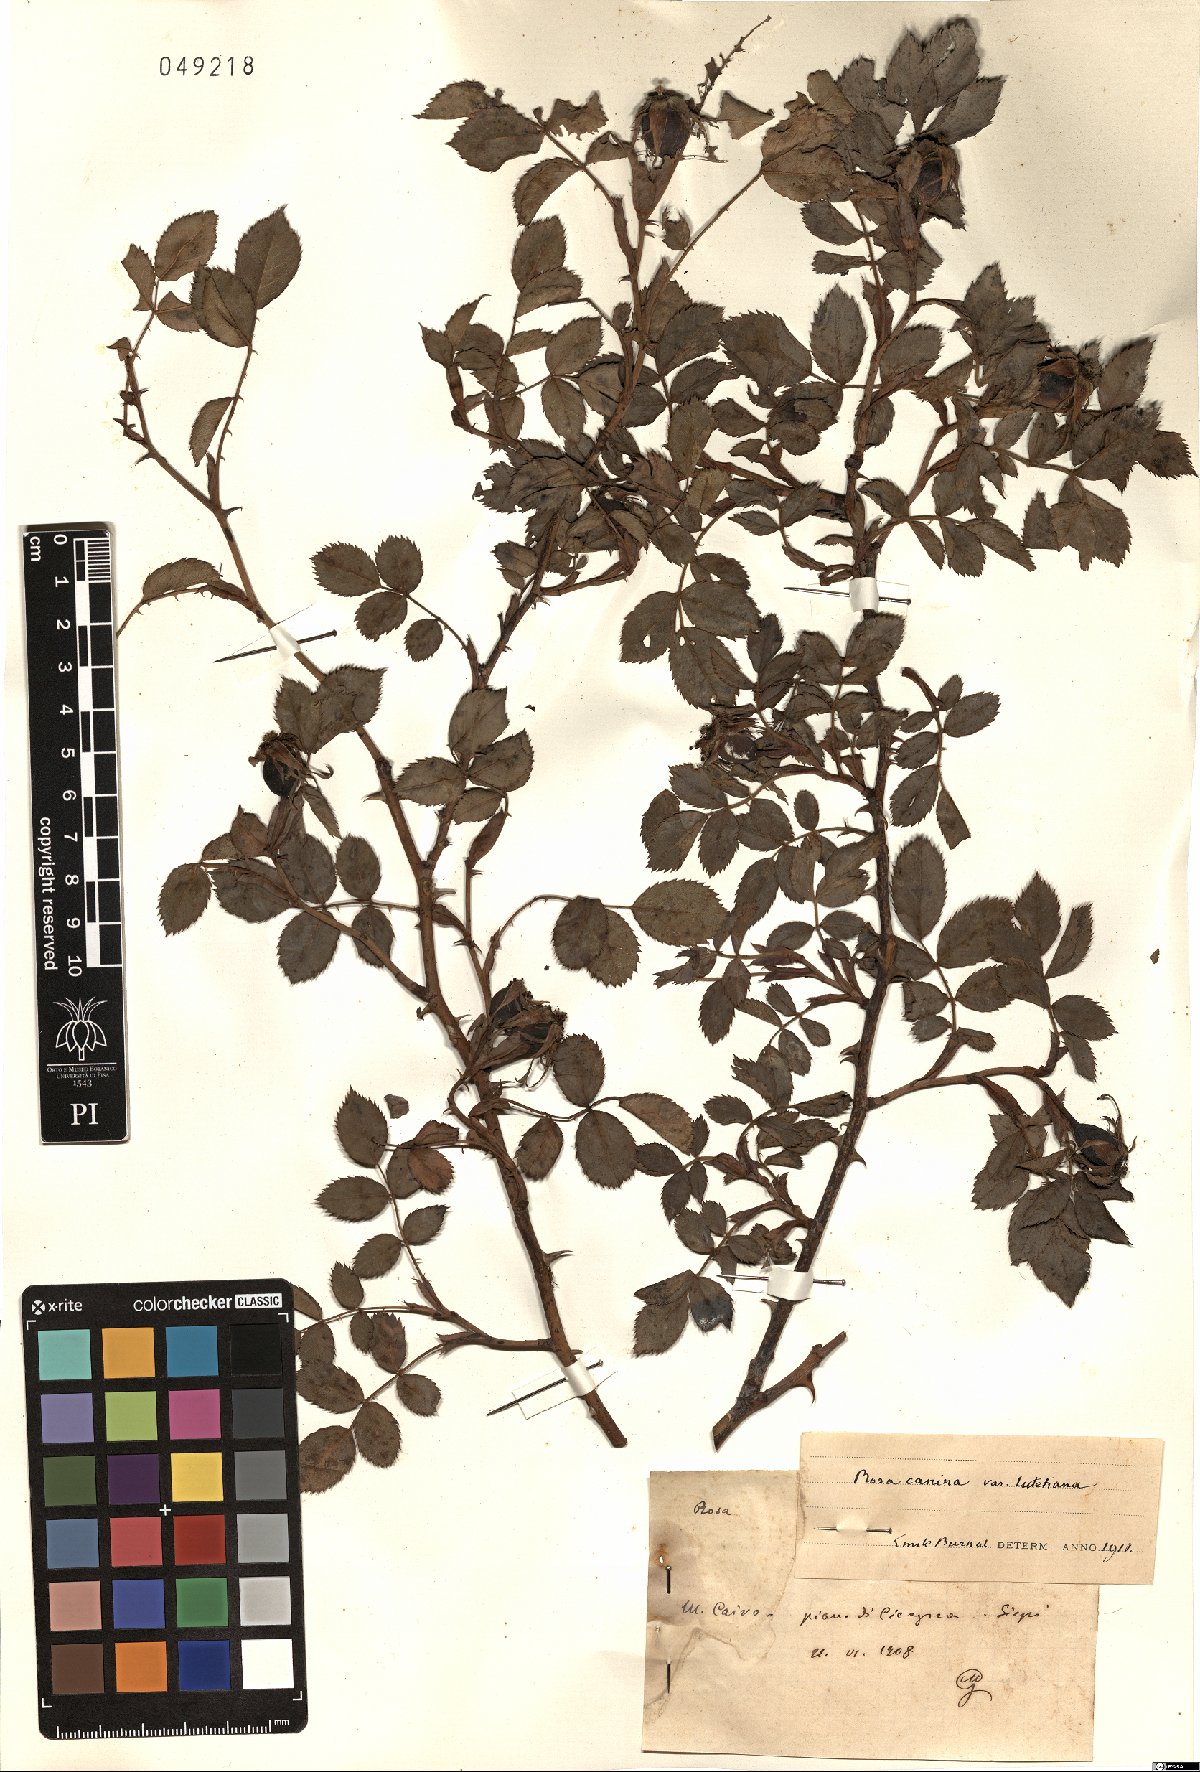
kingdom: Plantae
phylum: Tracheophyta
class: Magnoliopsida
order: Rosales
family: Rosaceae
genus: Rosa
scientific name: Rosa canina
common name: Dog rose
